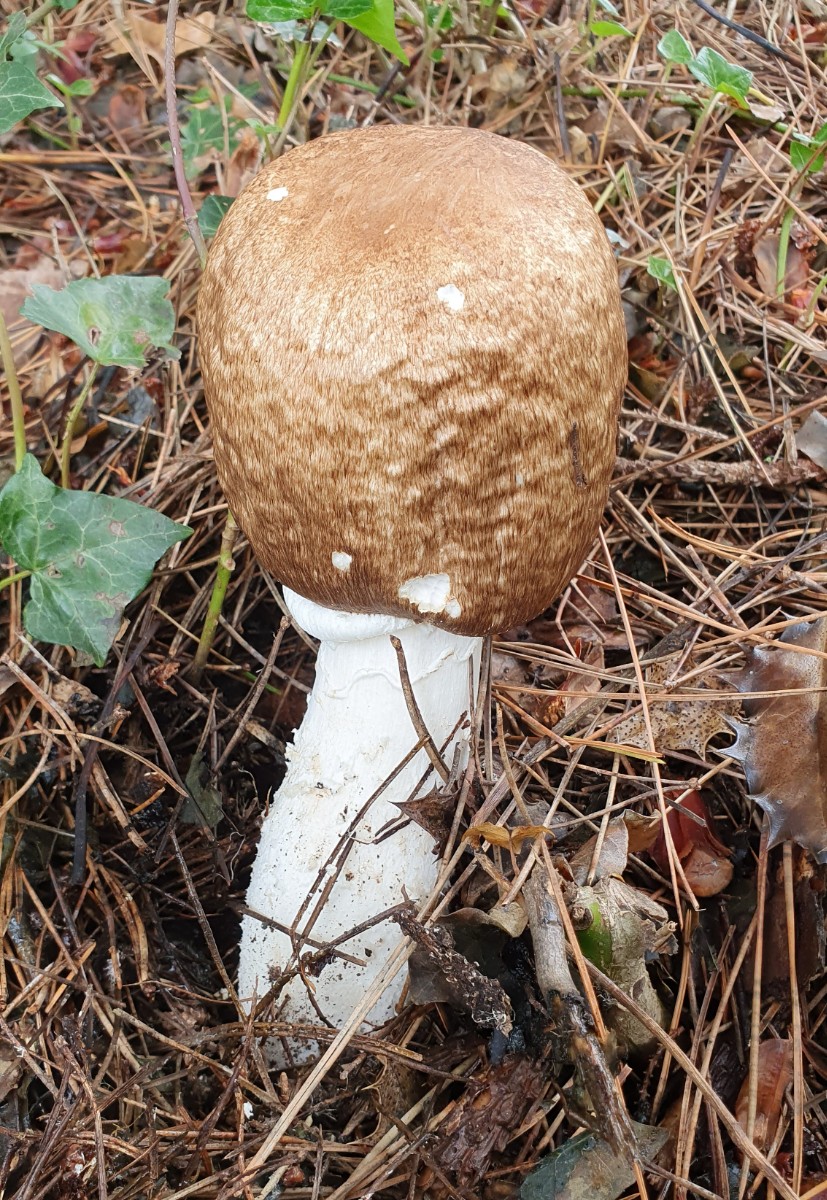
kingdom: Fungi
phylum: Basidiomycota
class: Agaricomycetes
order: Agaricales
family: Agaricaceae
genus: Agaricus
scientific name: Agaricus augustus
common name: prægtig champignon
